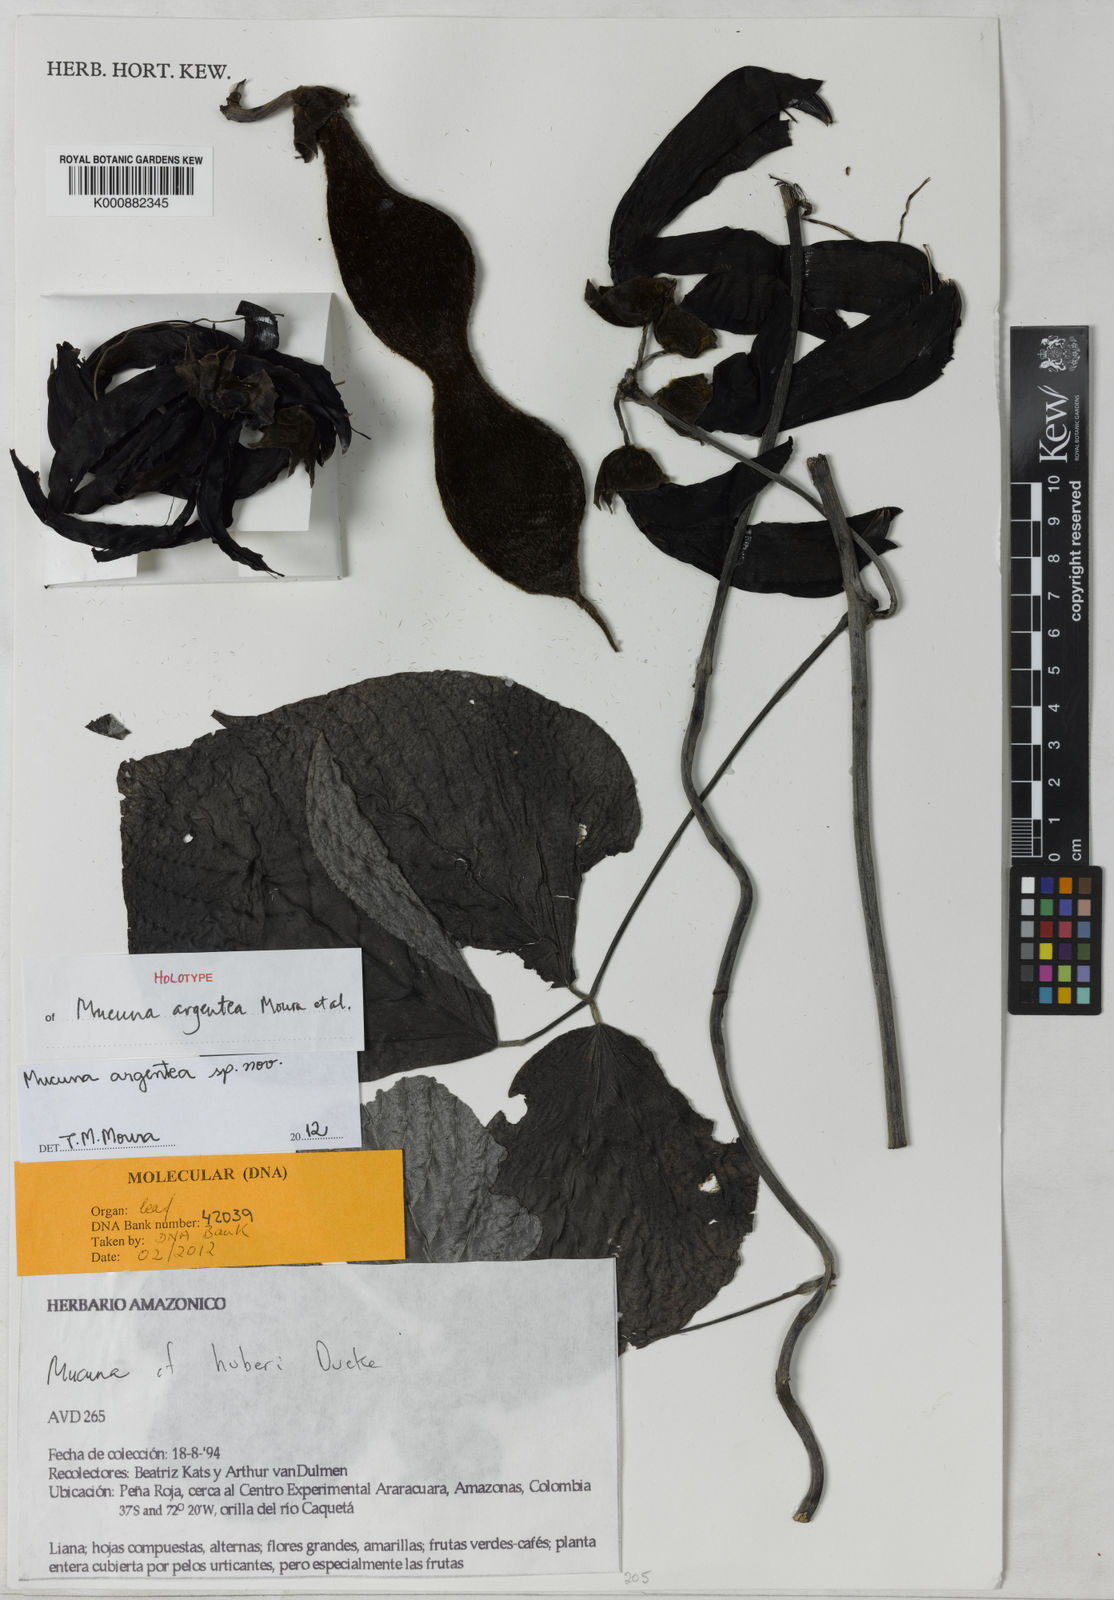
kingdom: Plantae
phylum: Tracheophyta
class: Magnoliopsida
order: Fabales
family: Fabaceae
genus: Mucuna
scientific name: Mucuna argentea
